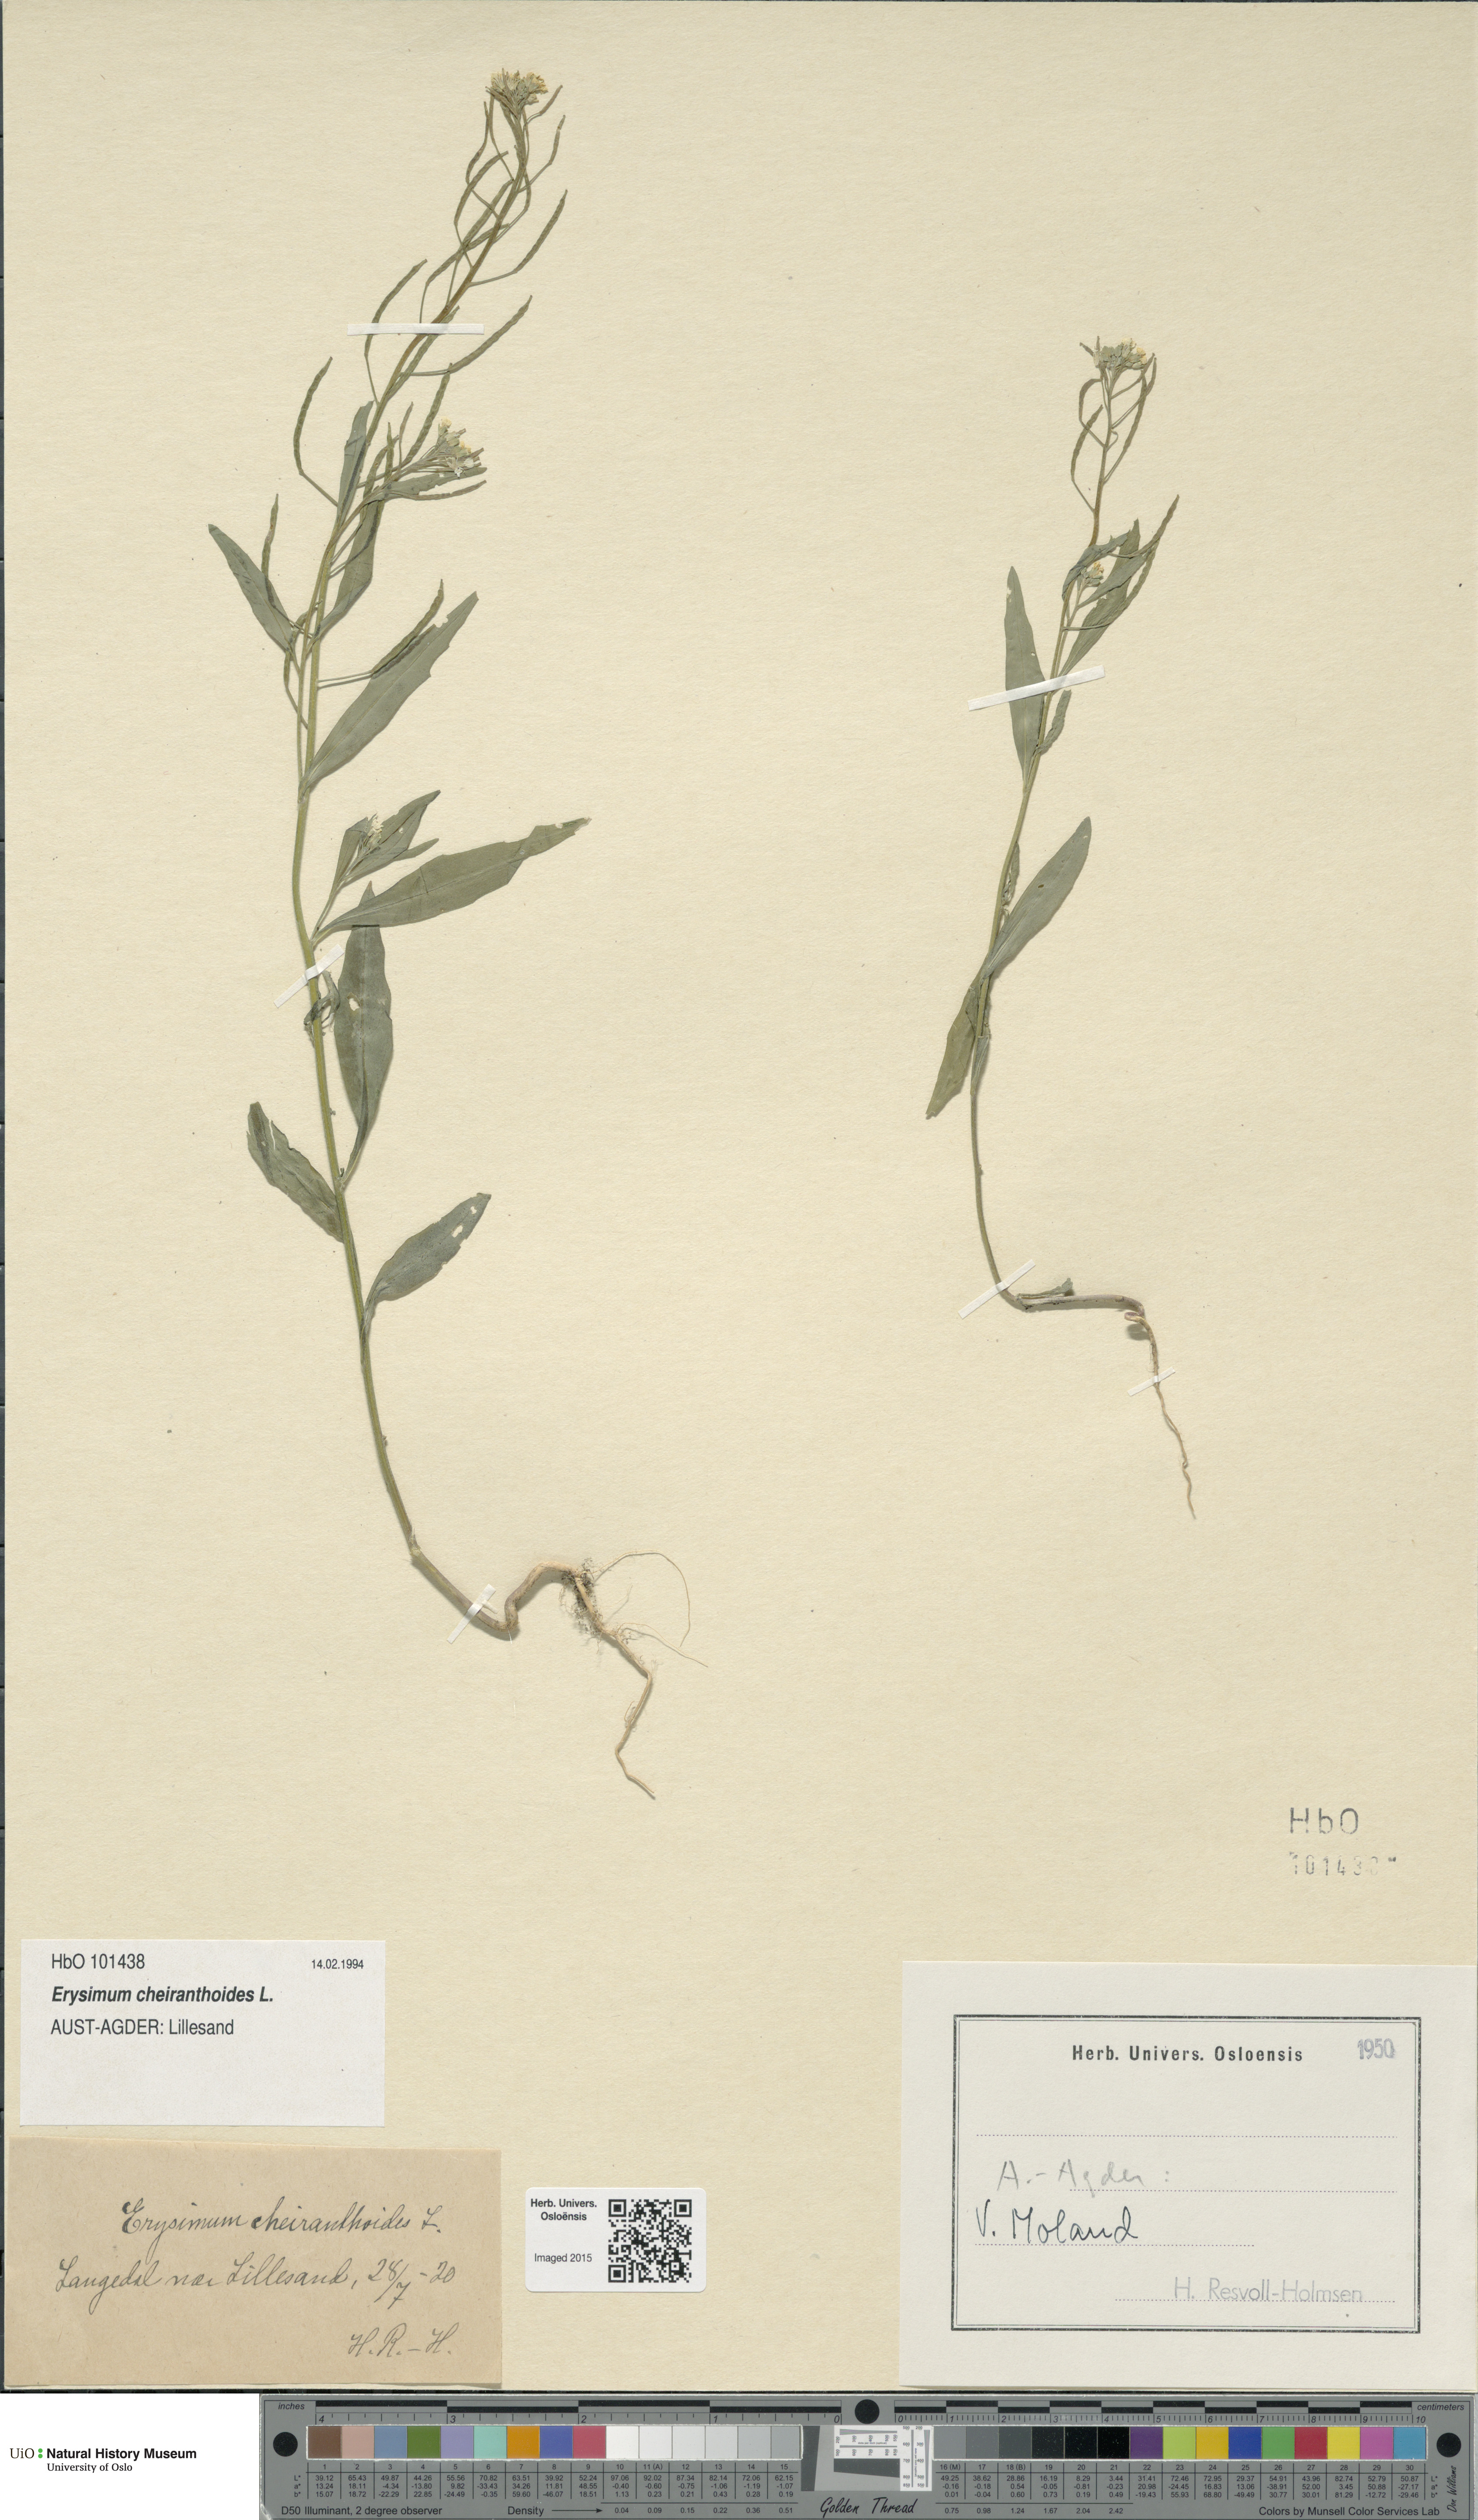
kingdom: Plantae
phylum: Tracheophyta
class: Magnoliopsida
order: Brassicales
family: Brassicaceae
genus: Erysimum
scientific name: Erysimum cheiranthoides
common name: Treacle mustard
